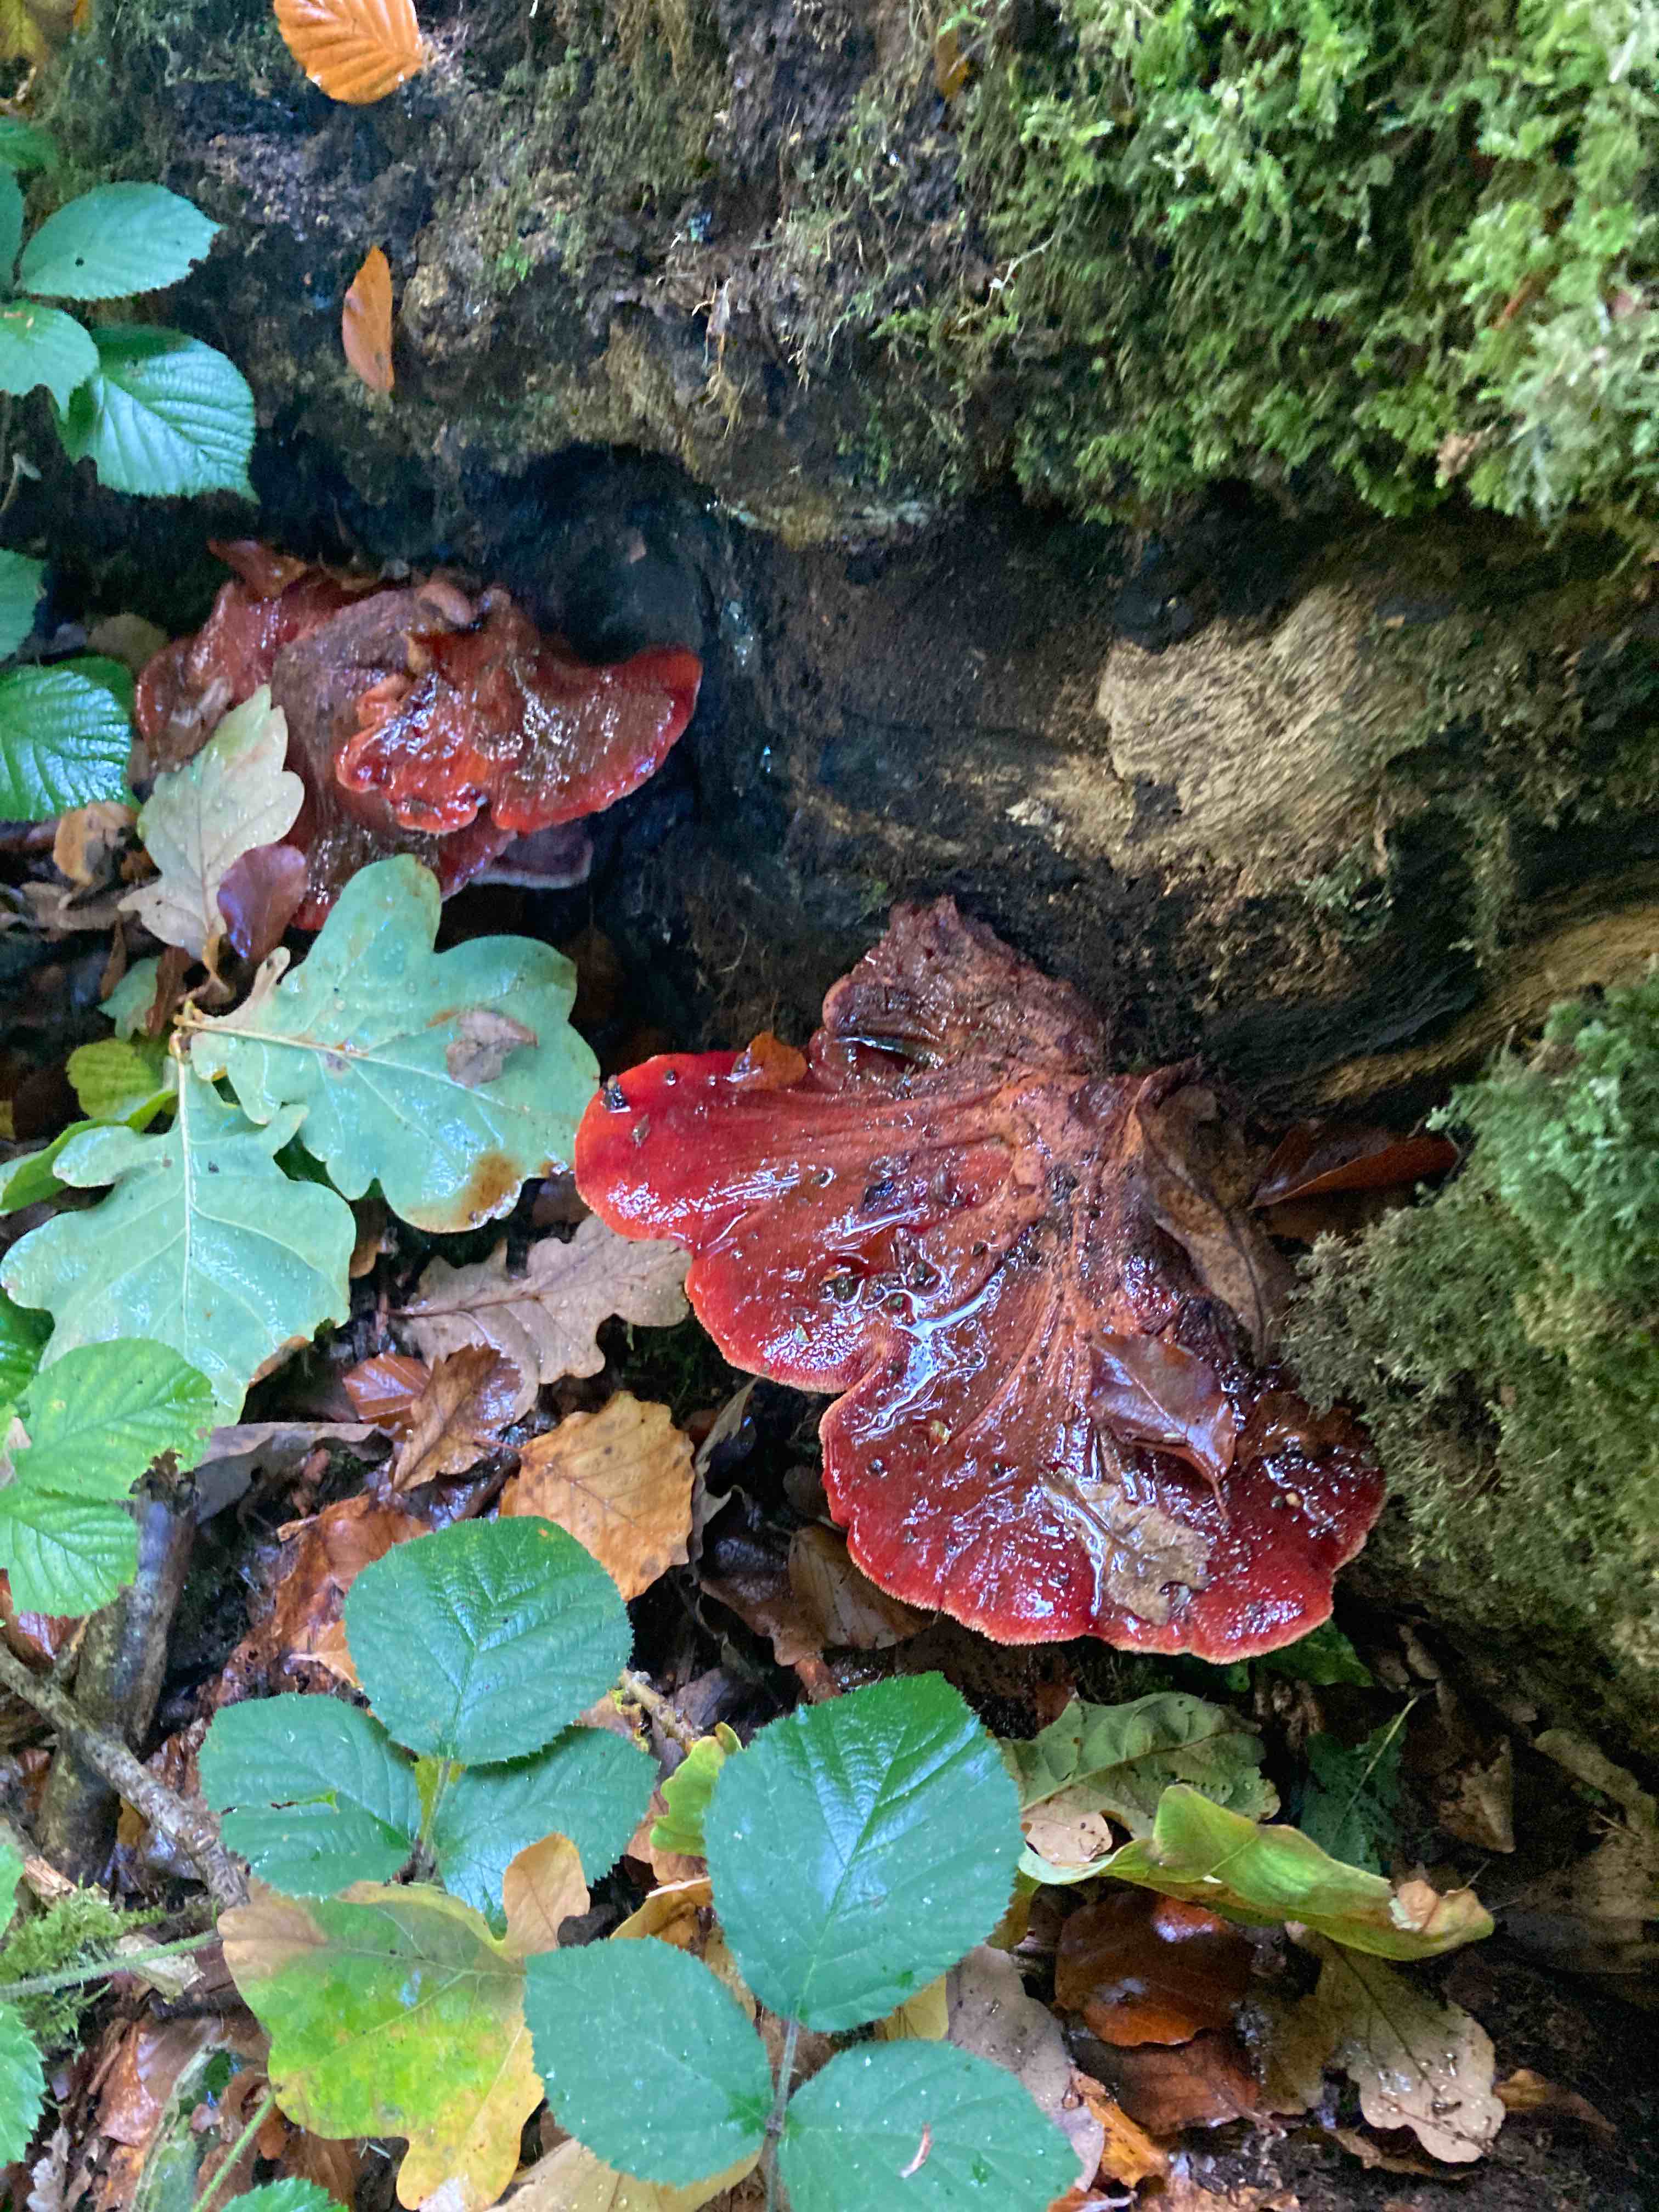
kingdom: Fungi
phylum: Basidiomycota
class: Agaricomycetes
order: Agaricales
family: Fistulinaceae
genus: Fistulina
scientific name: Fistulina hepatica
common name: oksetunge
